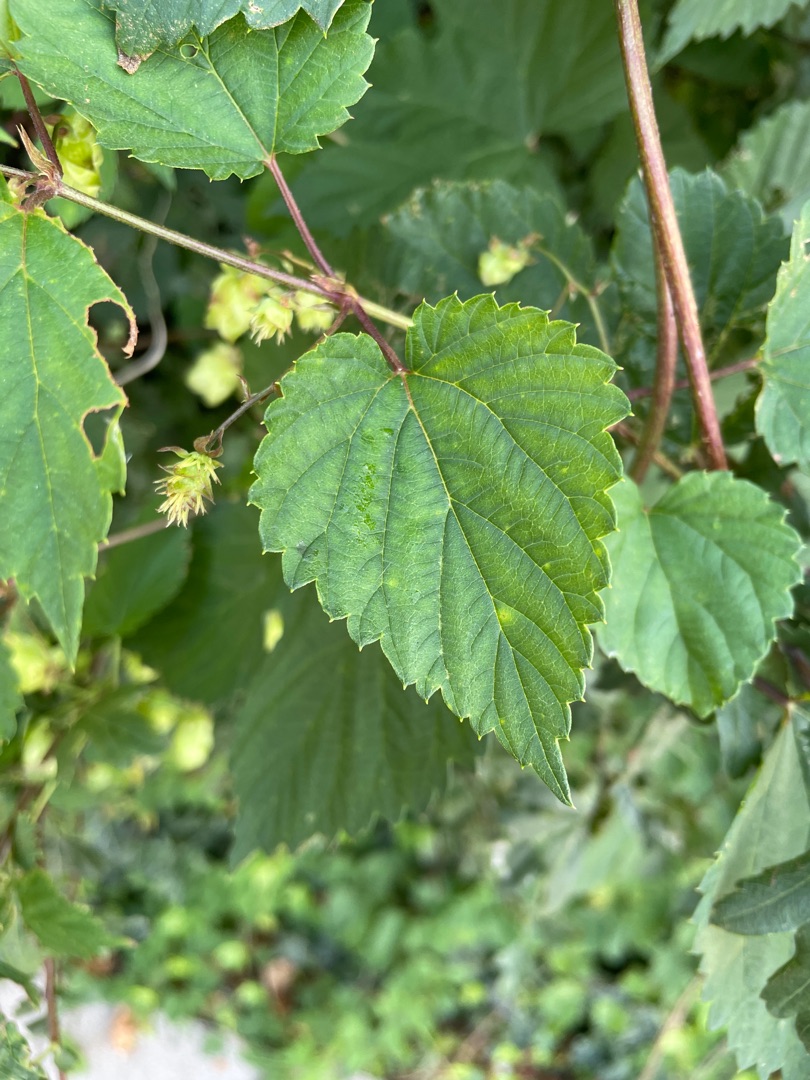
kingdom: Plantae
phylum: Tracheophyta
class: Magnoliopsida
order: Rosales
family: Cannabaceae
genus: Humulus
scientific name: Humulus lupulus
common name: Humle
